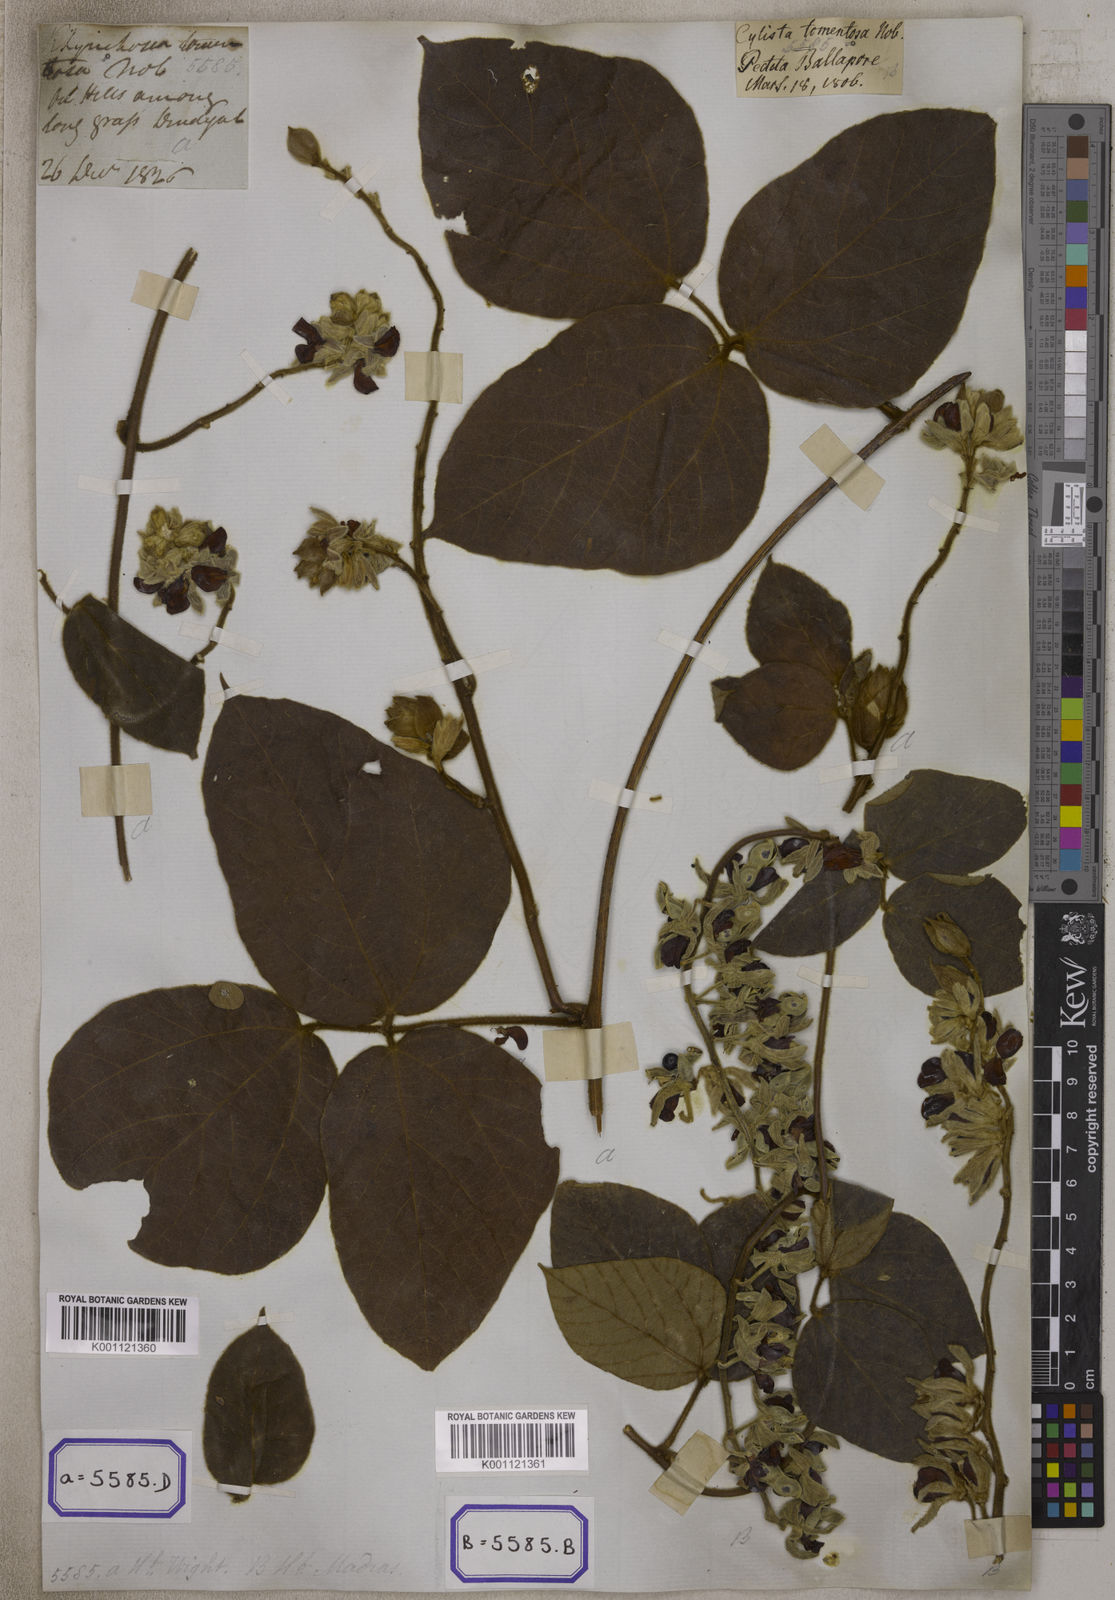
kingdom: Plantae
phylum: Tracheophyta
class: Magnoliopsida
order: Fabales
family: Fabaceae
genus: Rhynchosia
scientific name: Rhynchosia hirta
